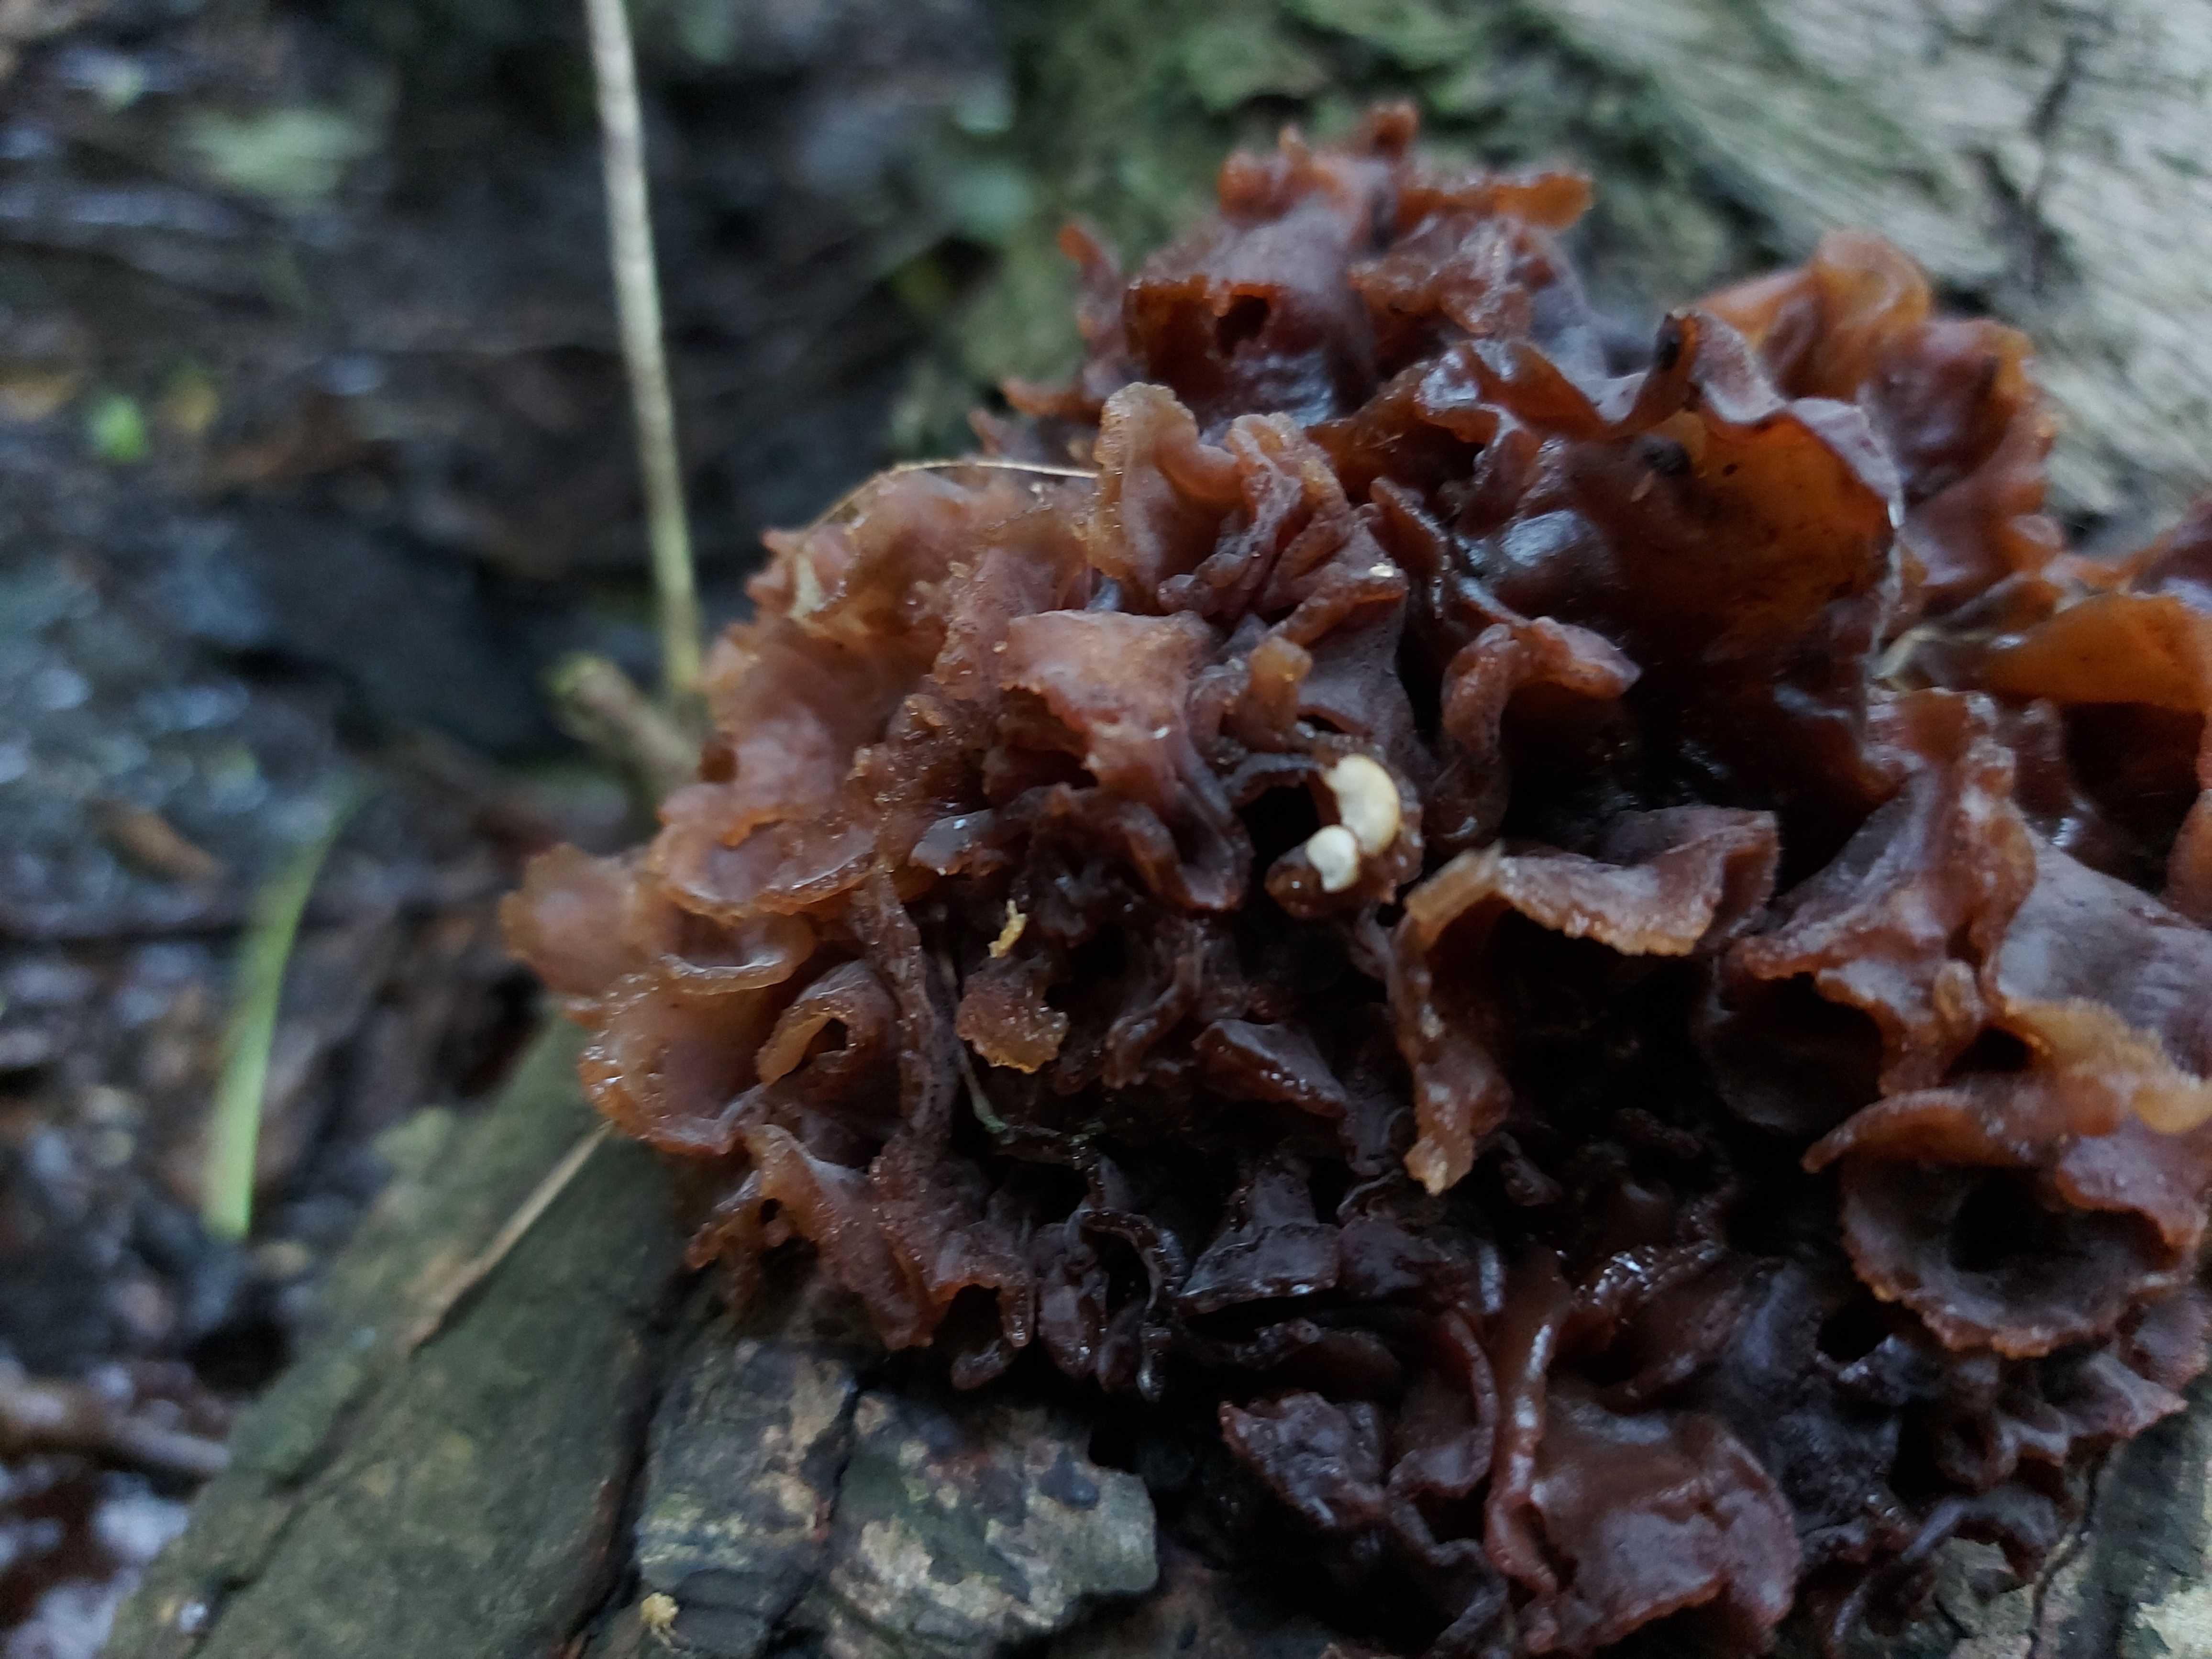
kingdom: Fungi
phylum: Basidiomycota
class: Tremellomycetes
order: Tremellales
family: Tremellaceae
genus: Phaeotremella
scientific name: Phaeotremella frondosa
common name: kæmpe-bævresvamp
